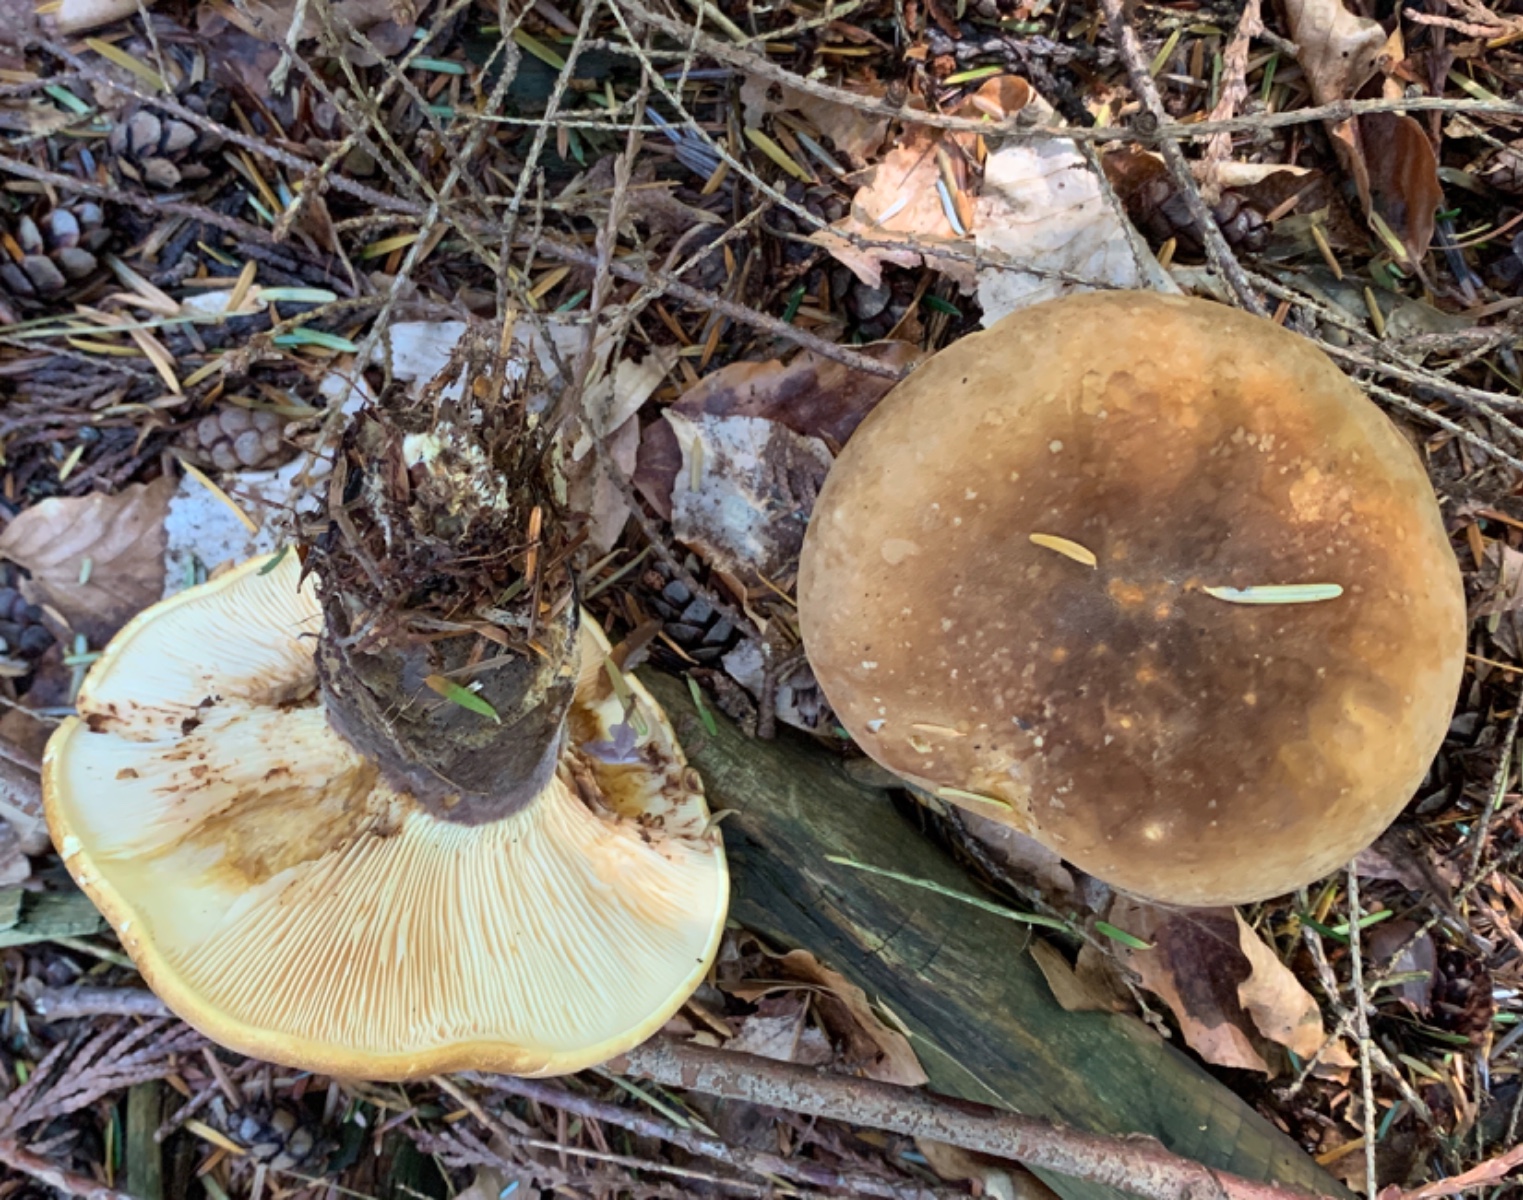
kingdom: Fungi
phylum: Basidiomycota
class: Agaricomycetes
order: Boletales
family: Tapinellaceae
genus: Tapinella
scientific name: Tapinella atrotomentosa
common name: sortfiltet viftesvamp
